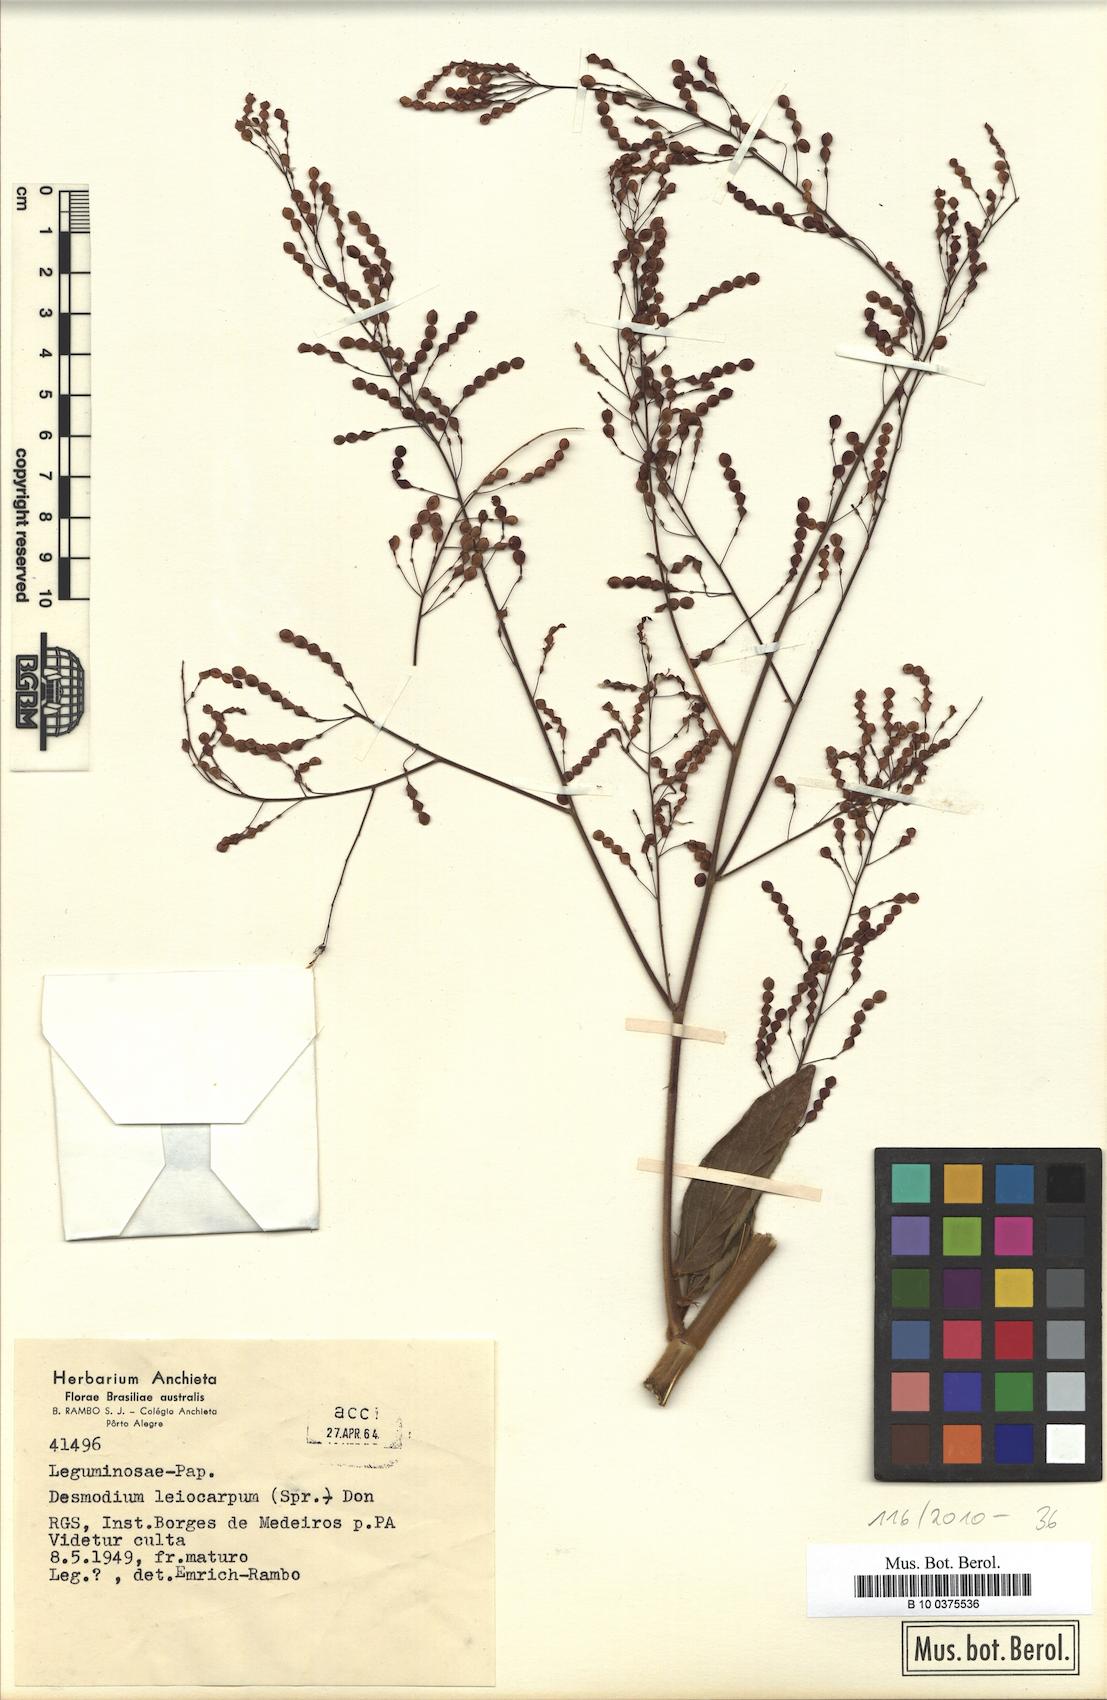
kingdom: Plantae
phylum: Tracheophyta
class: Magnoliopsida
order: Fabales
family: Fabaceae
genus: Desmodium
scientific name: Desmodium leiocarpum
